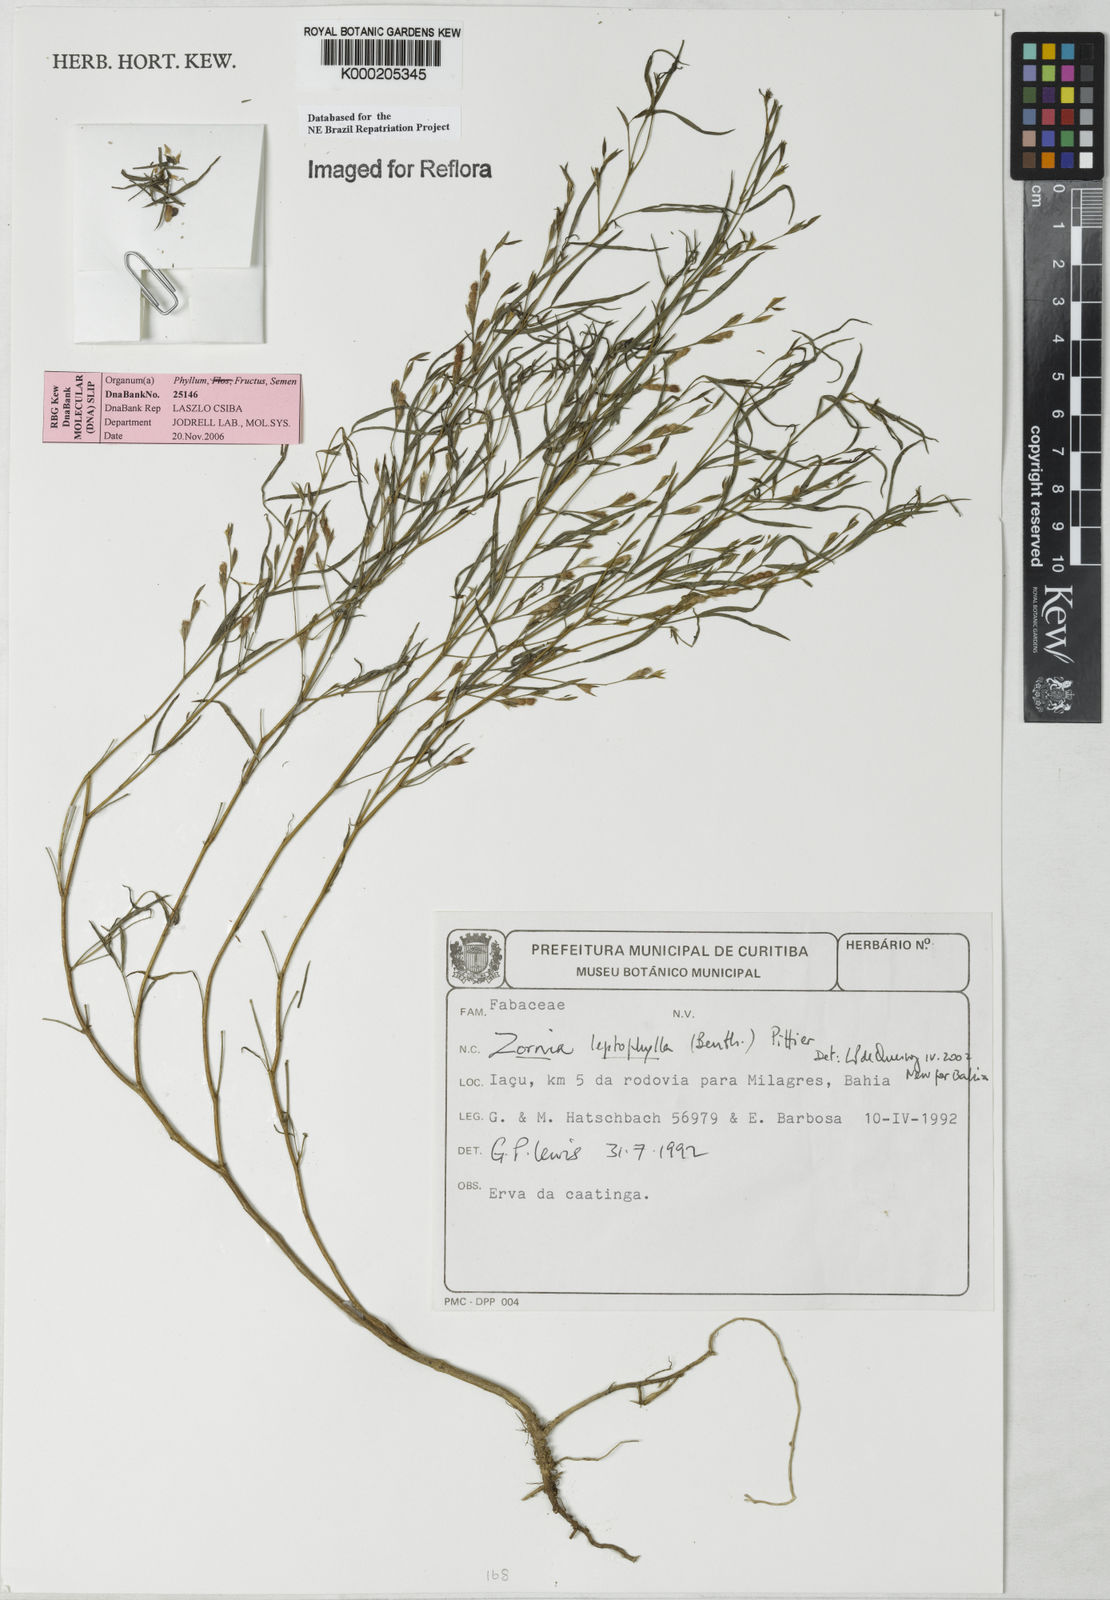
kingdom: Plantae
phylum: Tracheophyta
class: Magnoliopsida
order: Fabales
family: Fabaceae
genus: Zornia
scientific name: Zornia leptophylla
